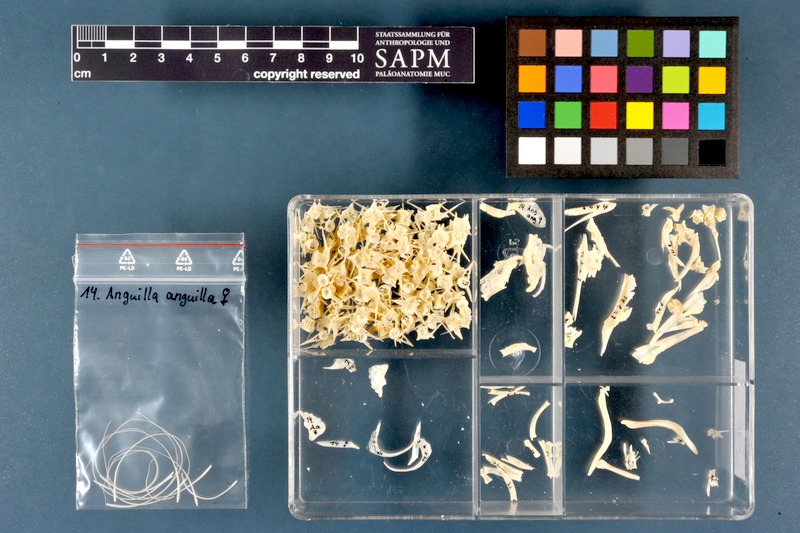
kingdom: Animalia
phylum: Chordata
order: Anguilliformes
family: Anguillidae
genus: Anguilla
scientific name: Anguilla anguilla
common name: European eel
